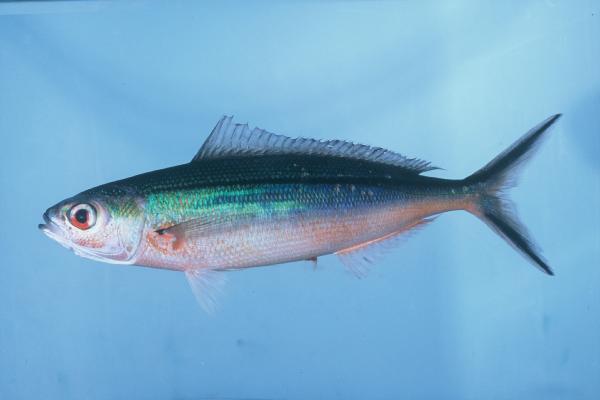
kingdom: Animalia
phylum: Chordata
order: Perciformes
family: Caesionidae
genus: Pterocaesio
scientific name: Pterocaesio tile
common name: Dark-banded fusilier
